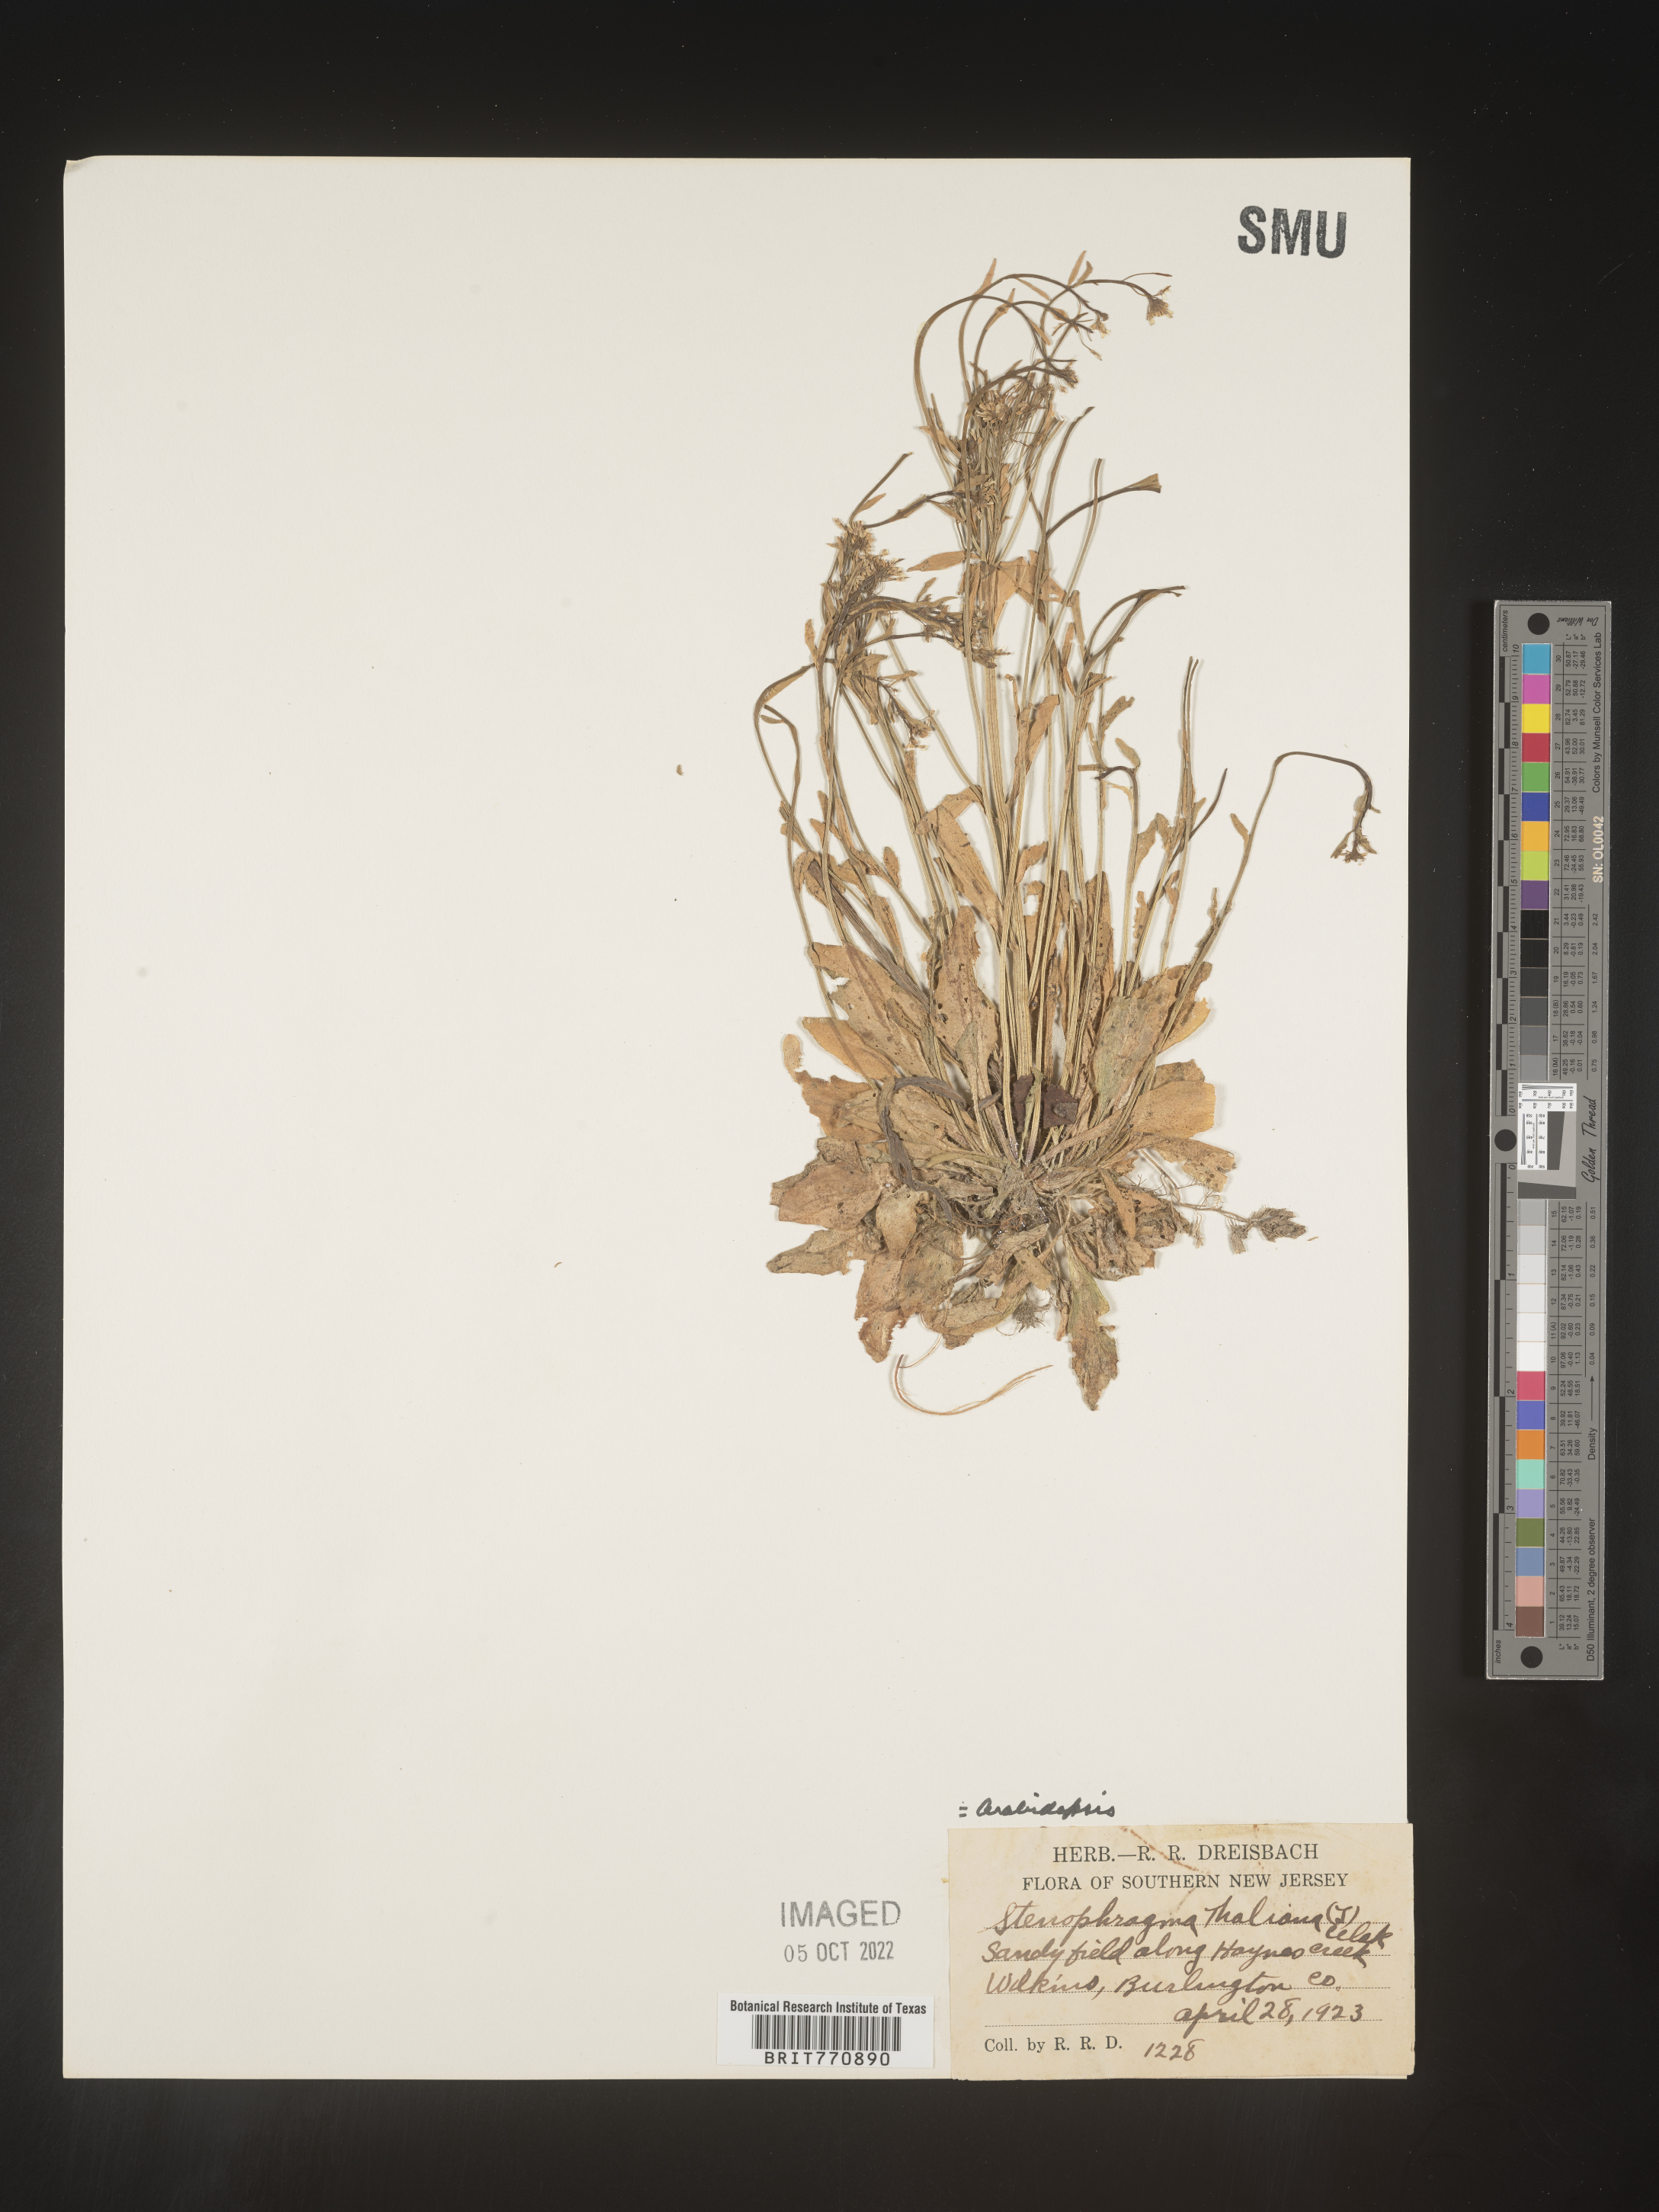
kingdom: Plantae
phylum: Tracheophyta
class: Magnoliopsida
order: Brassicales
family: Brassicaceae
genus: Arabidopsis
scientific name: Arabidopsis thaliana
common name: Thale cress
